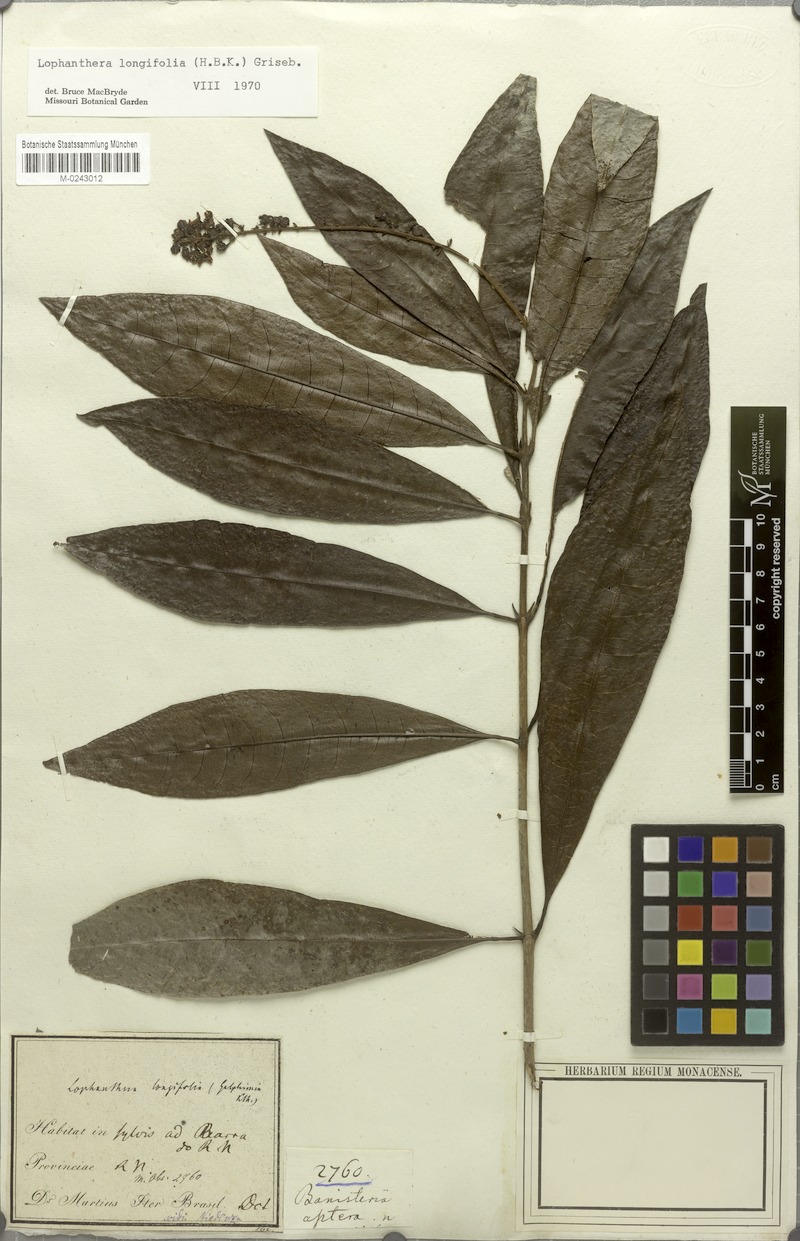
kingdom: Plantae
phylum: Tracheophyta
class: Magnoliopsida
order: Malpighiales
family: Malpighiaceae
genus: Lophanthera
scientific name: Lophanthera longifolia
